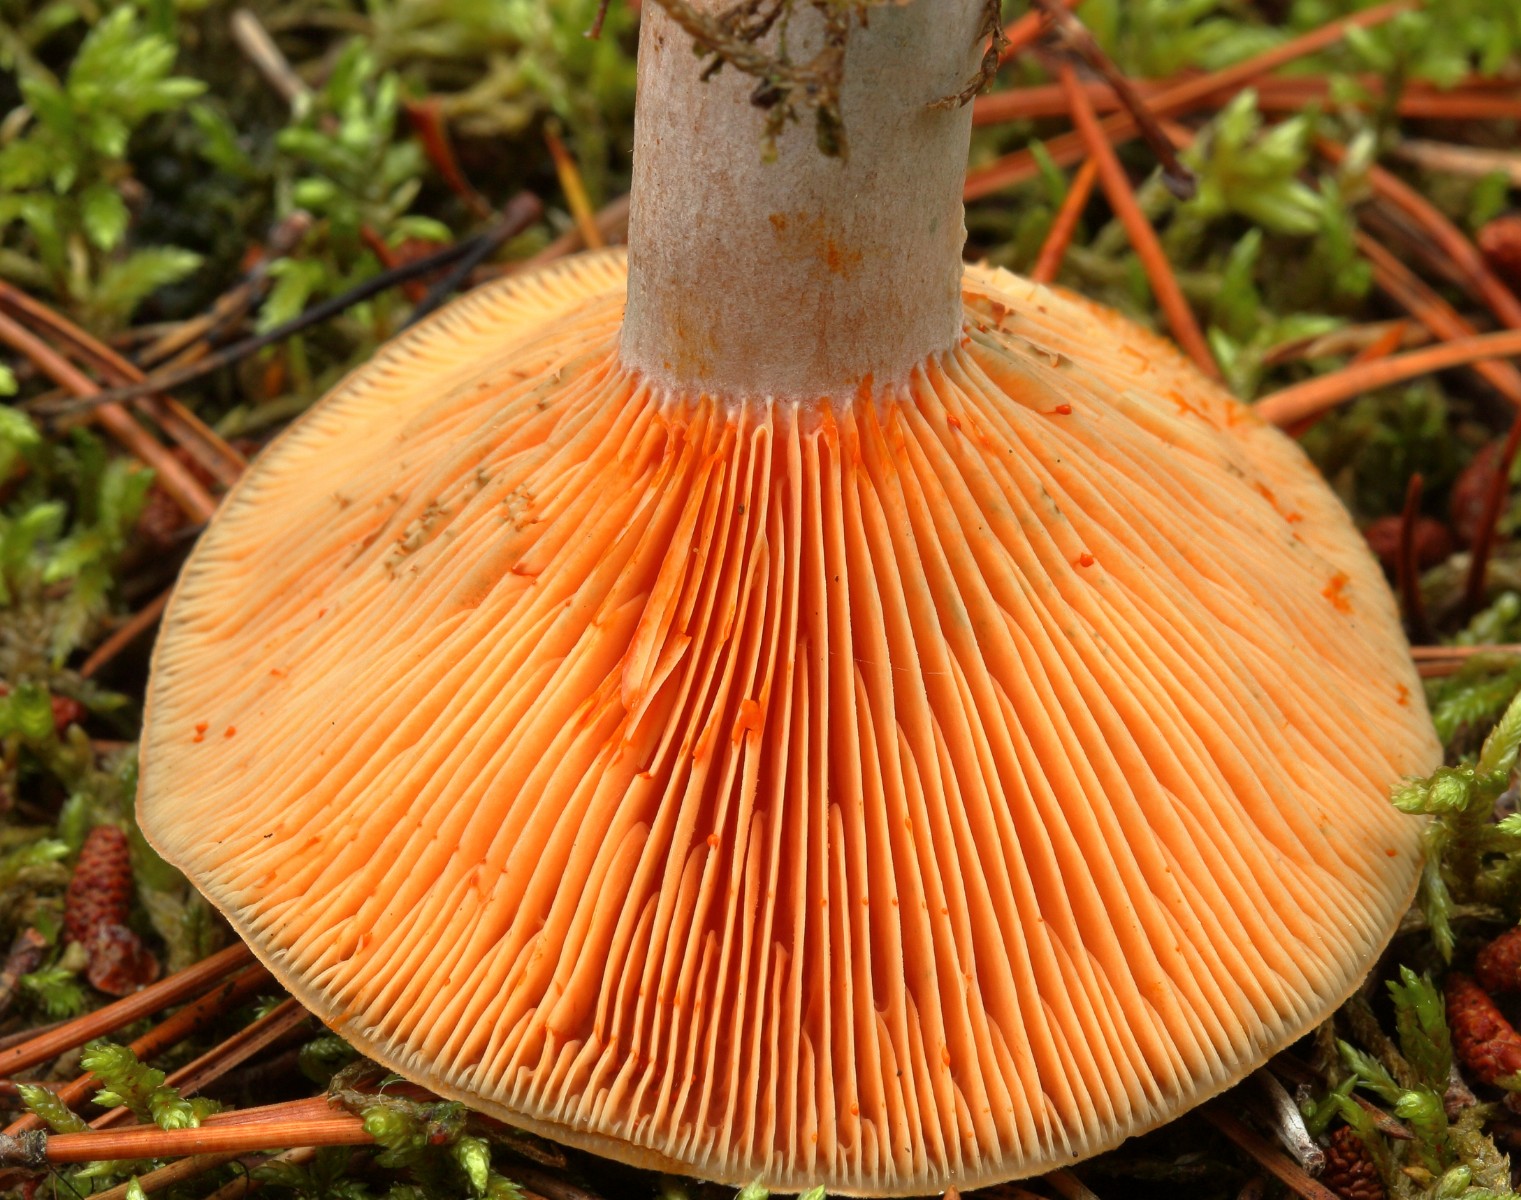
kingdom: Fungi
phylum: Basidiomycota
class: Agaricomycetes
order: Russulales
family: Russulaceae
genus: Lactarius
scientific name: Lactarius quieticolor
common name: tvefarvet mælkehat
